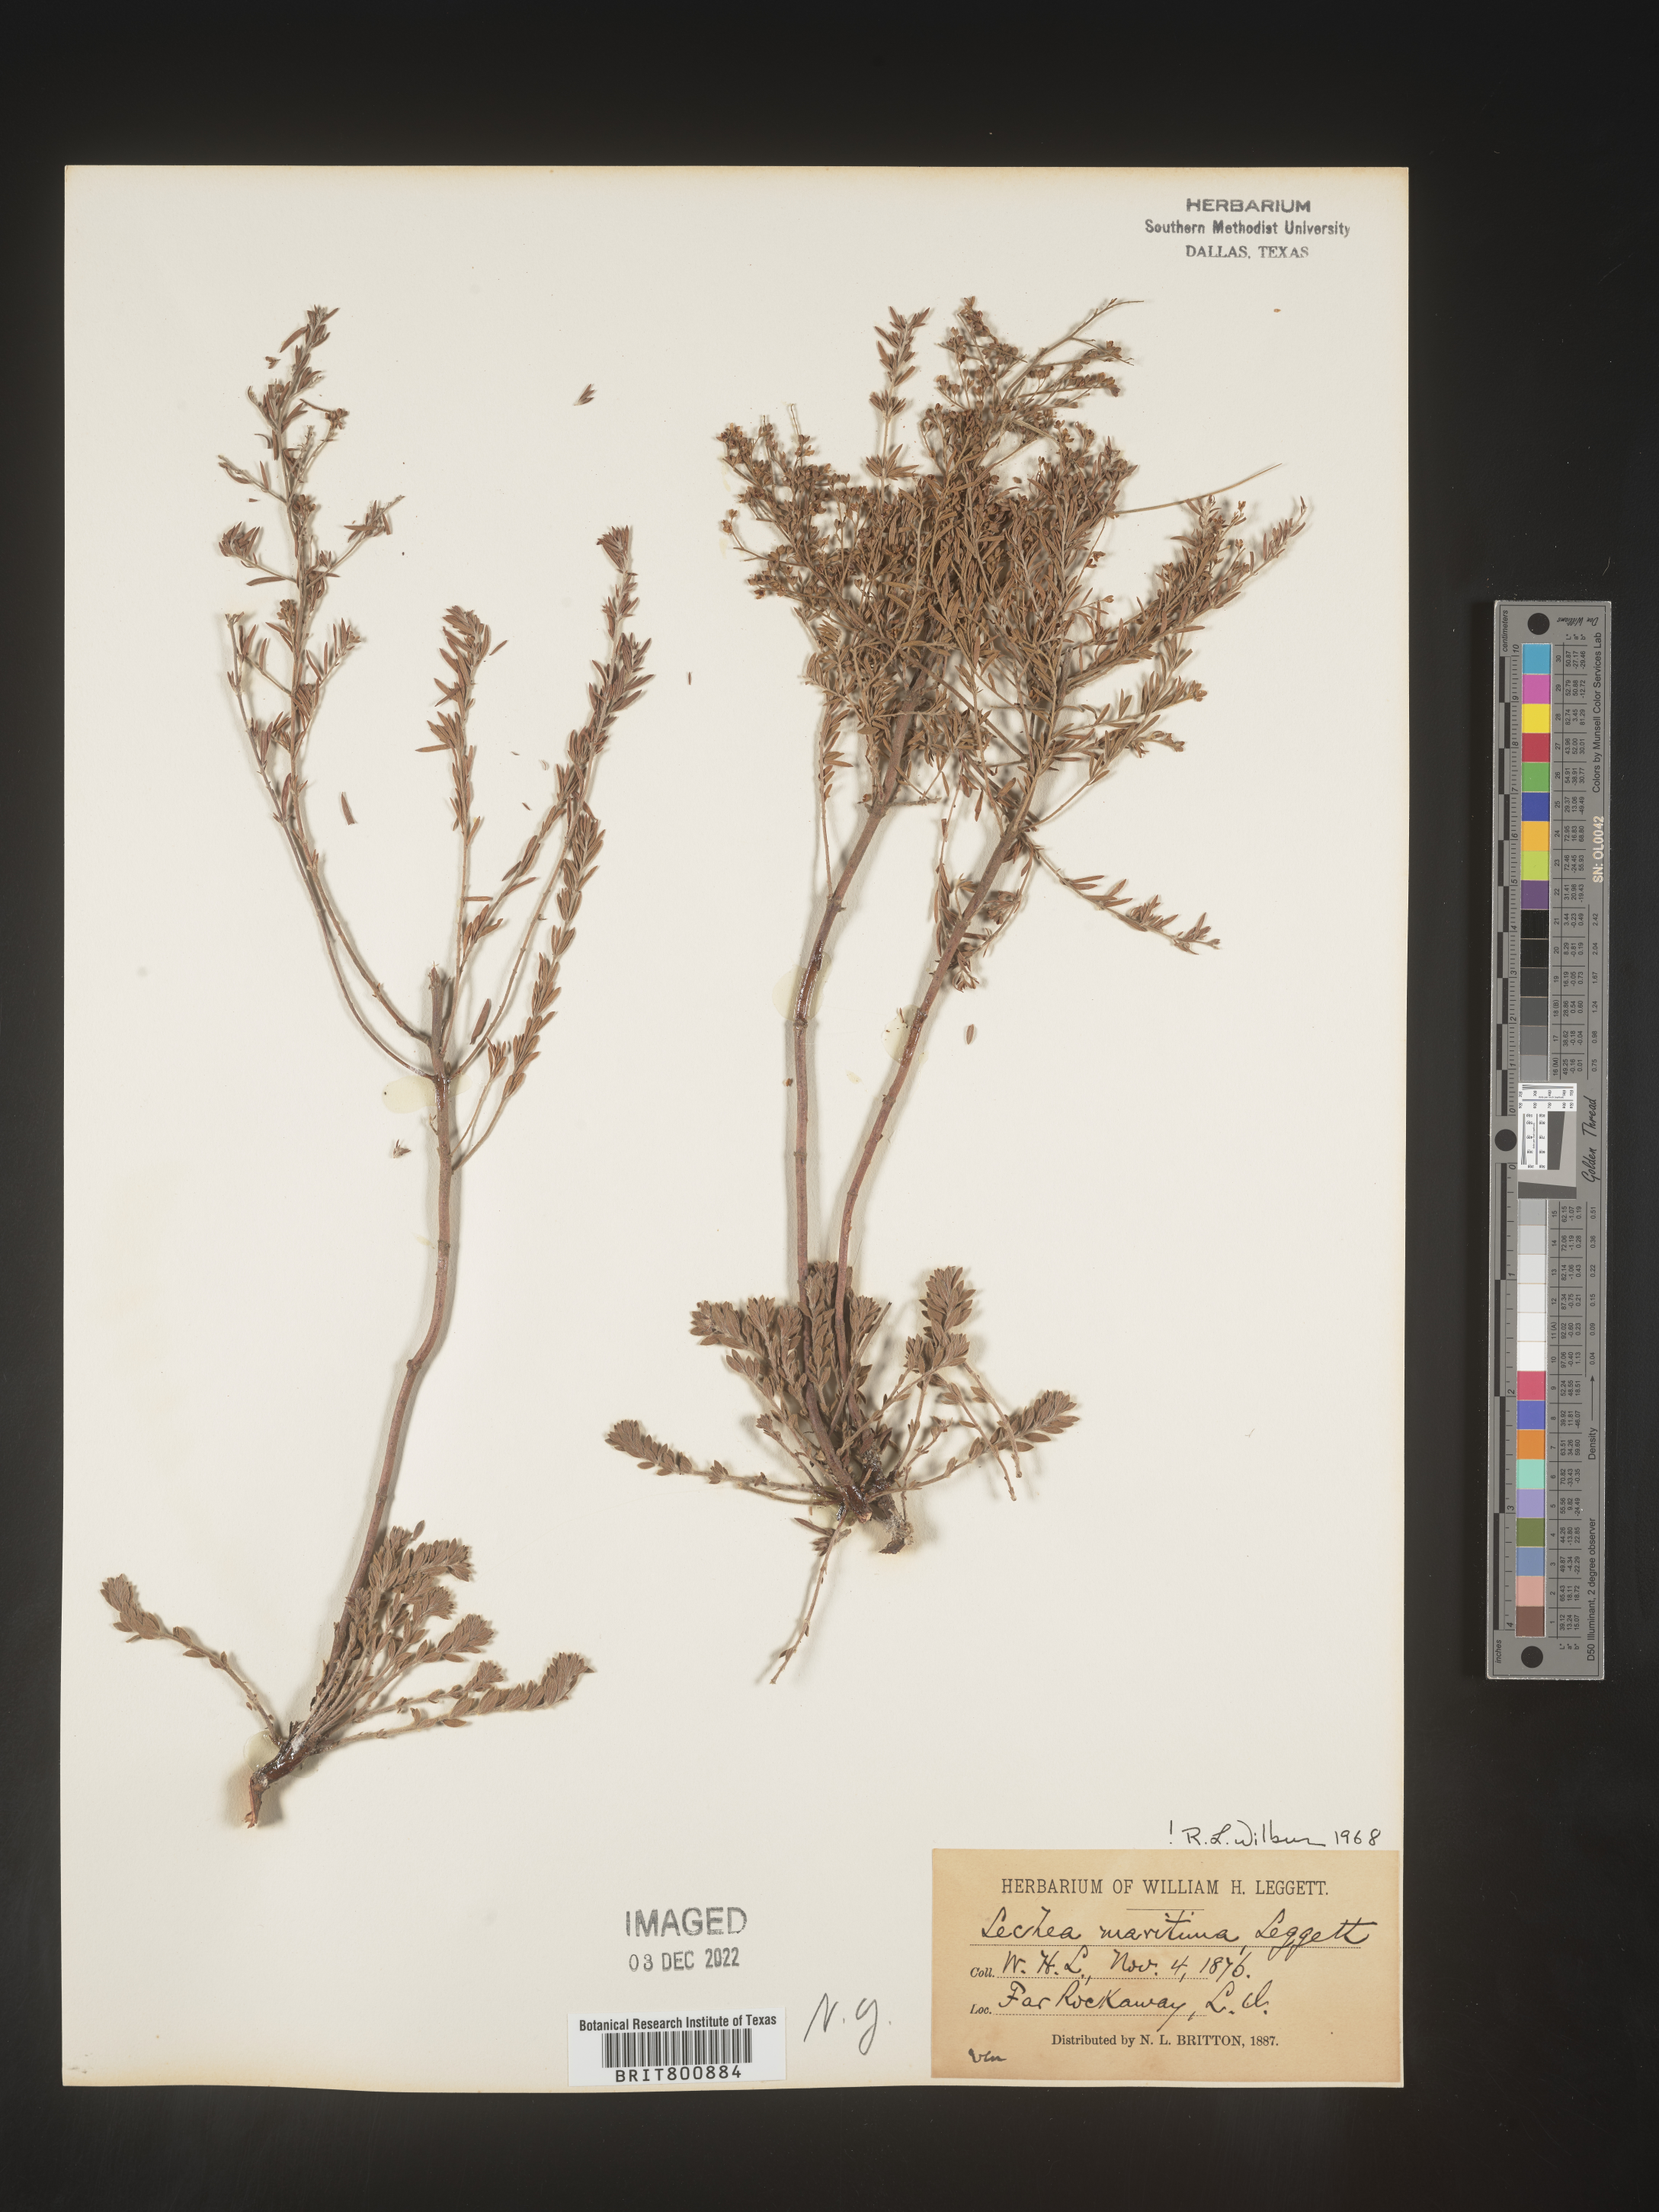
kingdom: Plantae
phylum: Tracheophyta
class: Magnoliopsida
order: Malvales
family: Cistaceae
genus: Lechea
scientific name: Lechea maritima
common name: Beach pinweed
